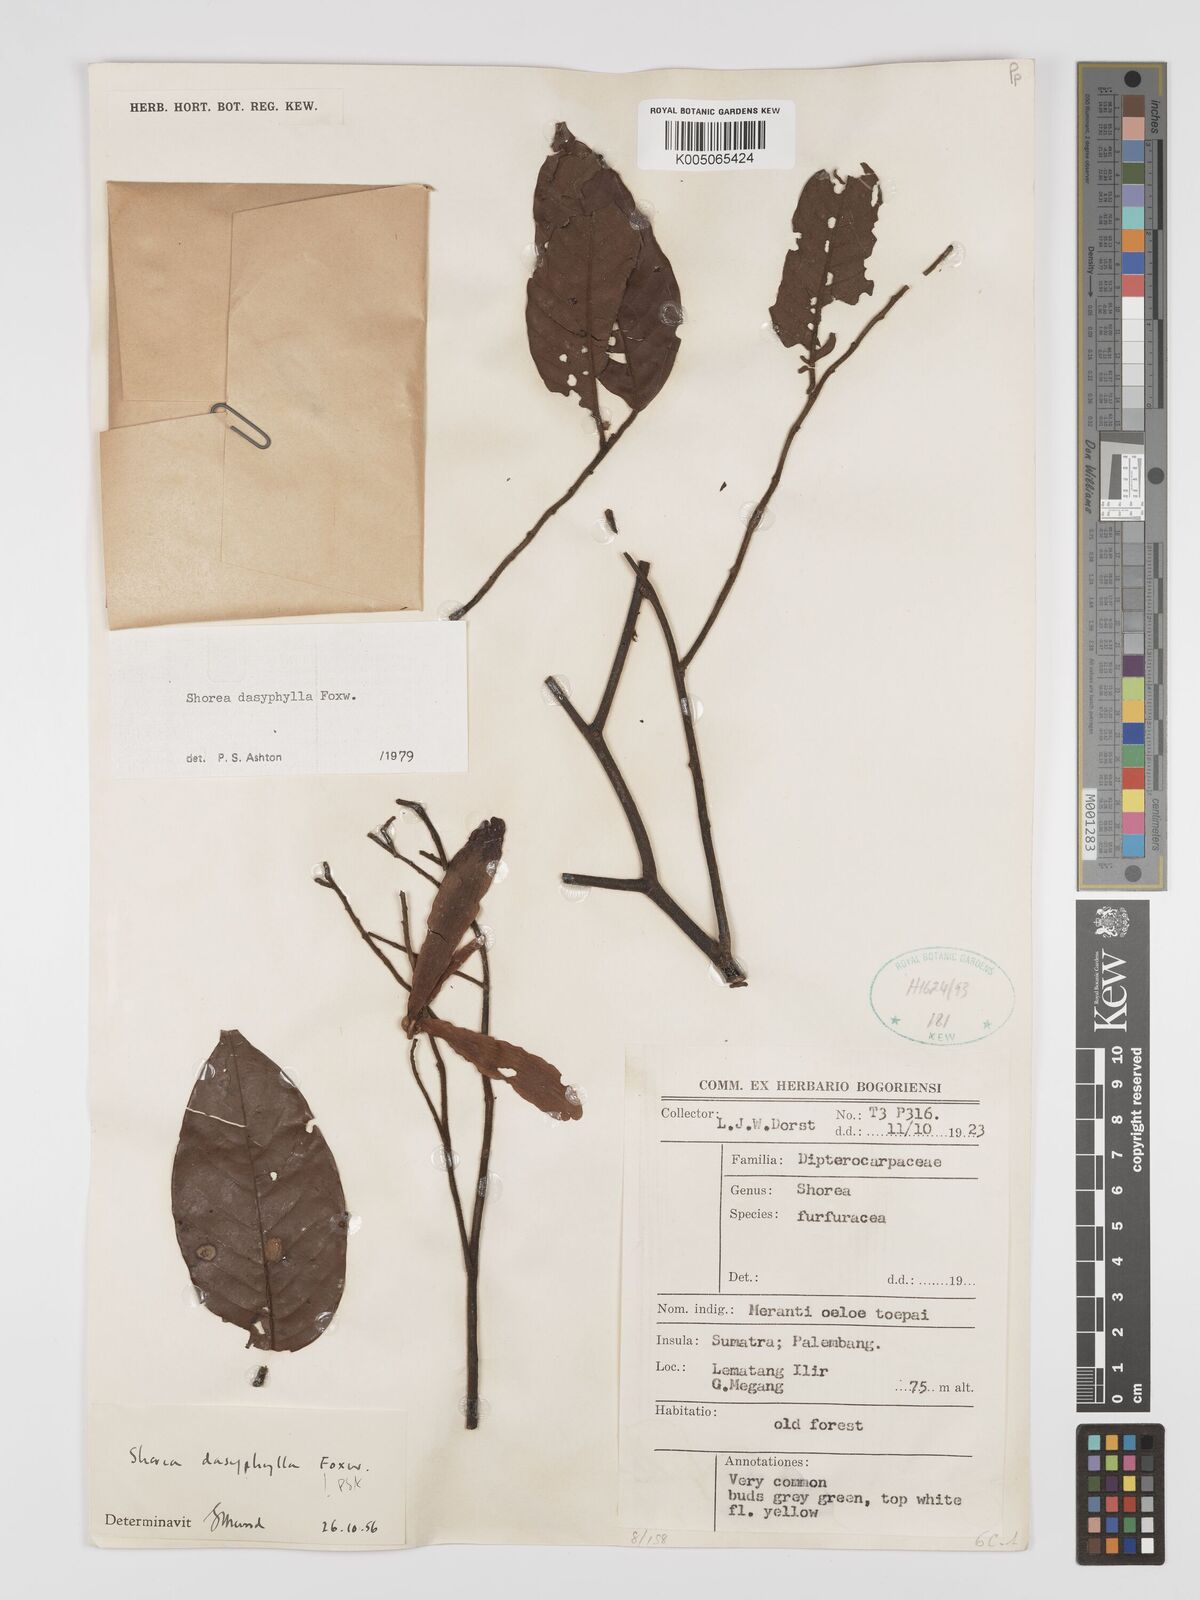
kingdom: Plantae
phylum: Tracheophyta
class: Magnoliopsida
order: Malvales
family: Dipterocarpaceae
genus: Shorea
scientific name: Shorea dasyphylla
